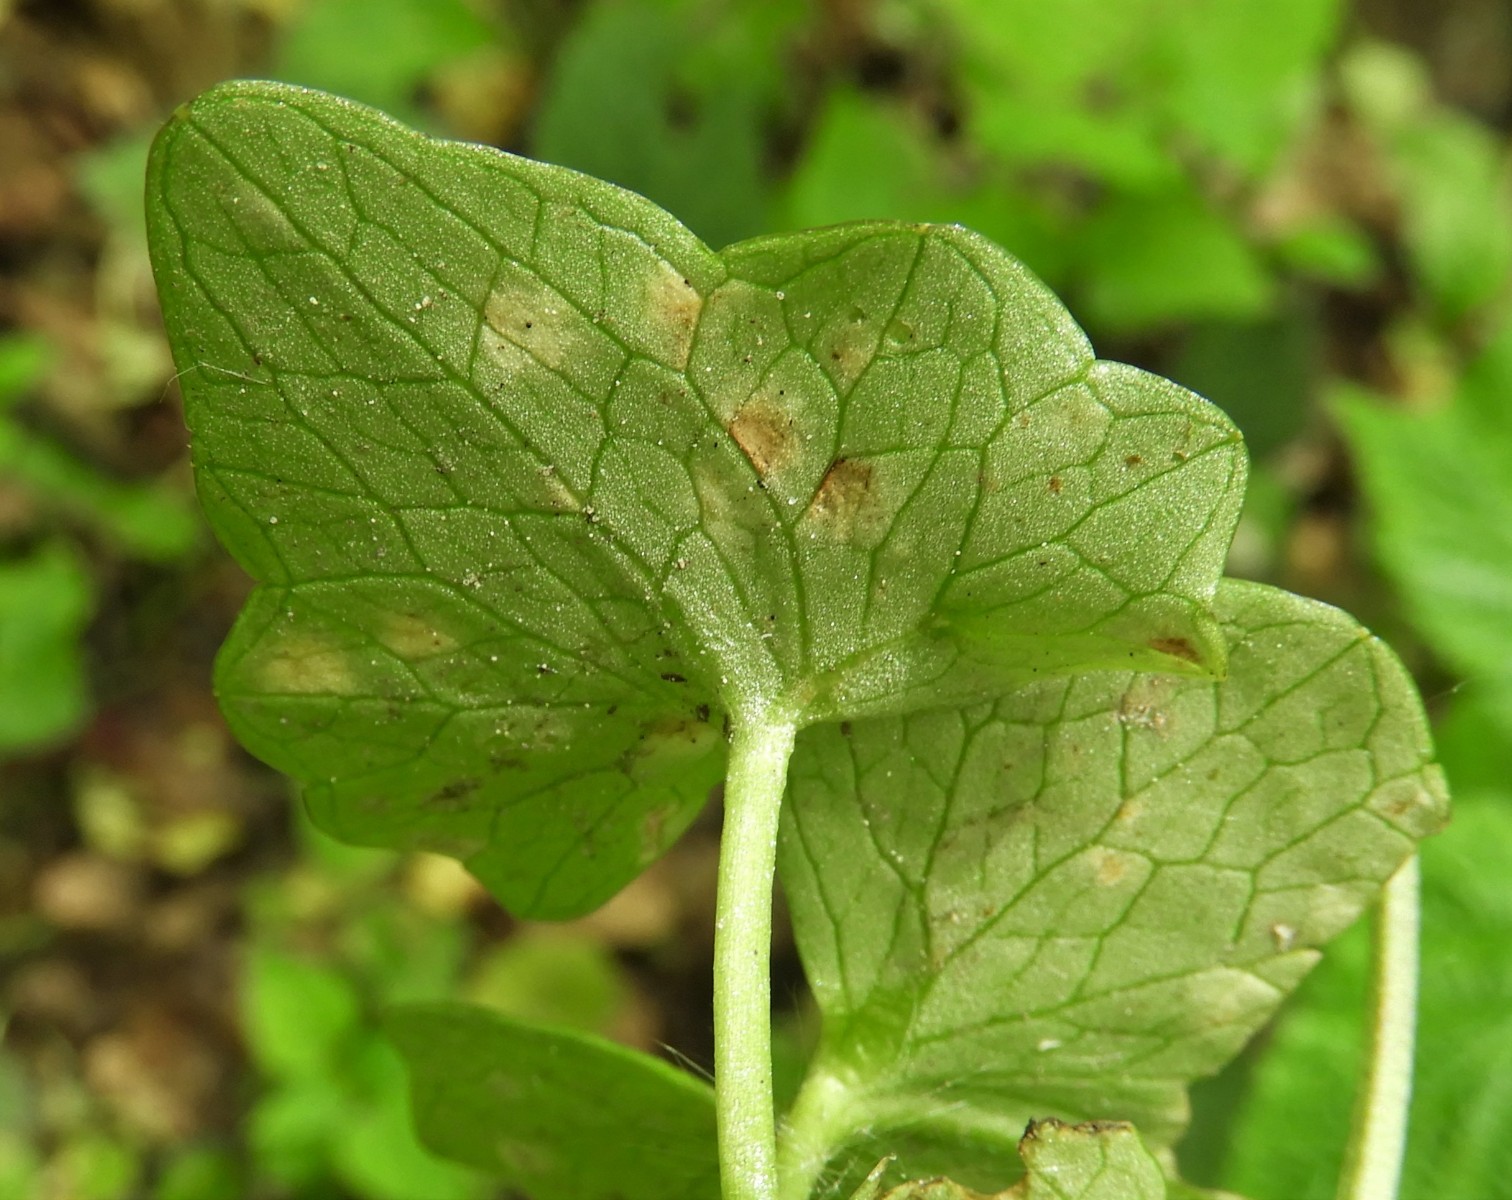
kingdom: Fungi
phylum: Basidiomycota
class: Exobasidiomycetes
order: Entylomatales
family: Entylomataceae
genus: Entyloma
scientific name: Entyloma ficariae
